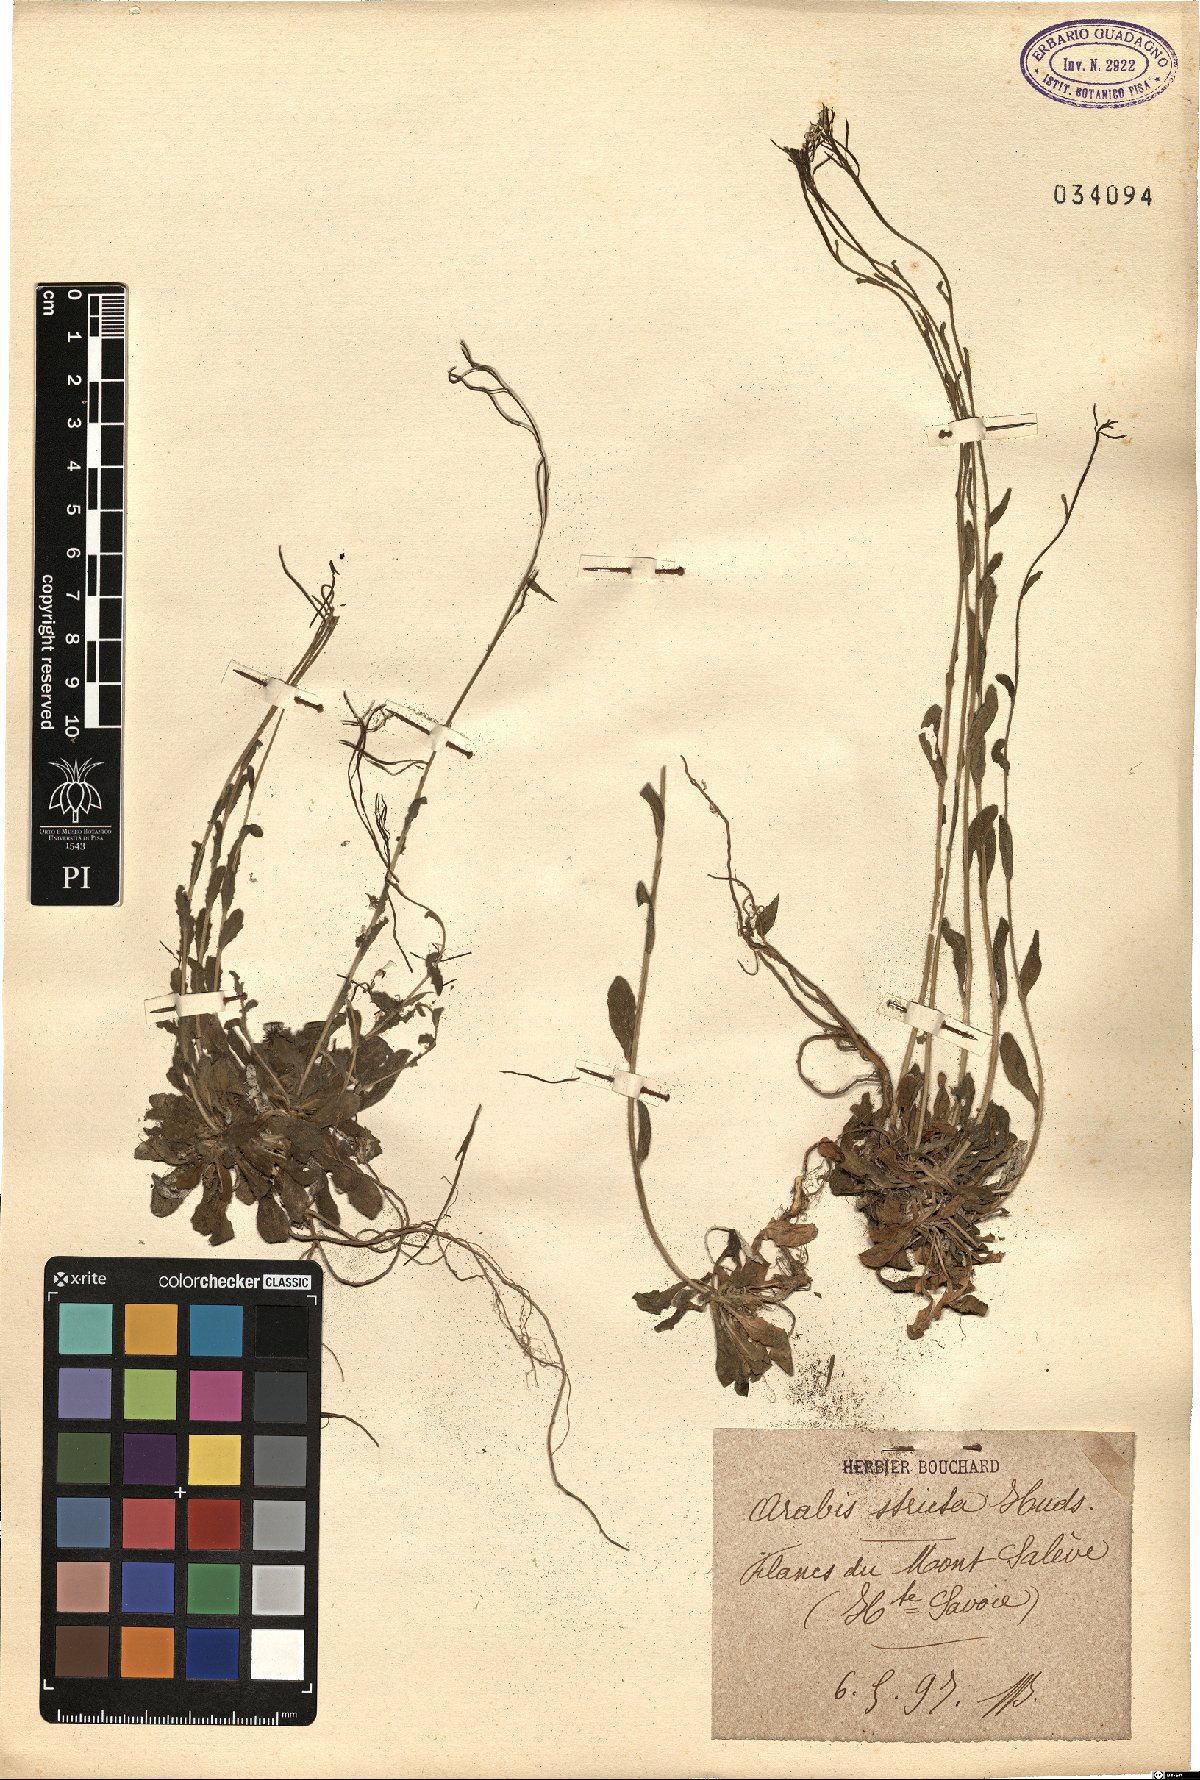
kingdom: Plantae
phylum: Tracheophyta
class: Magnoliopsida
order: Brassicales
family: Brassicaceae
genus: Arabis
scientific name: Arabis scabra
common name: Bristol rock-cress
